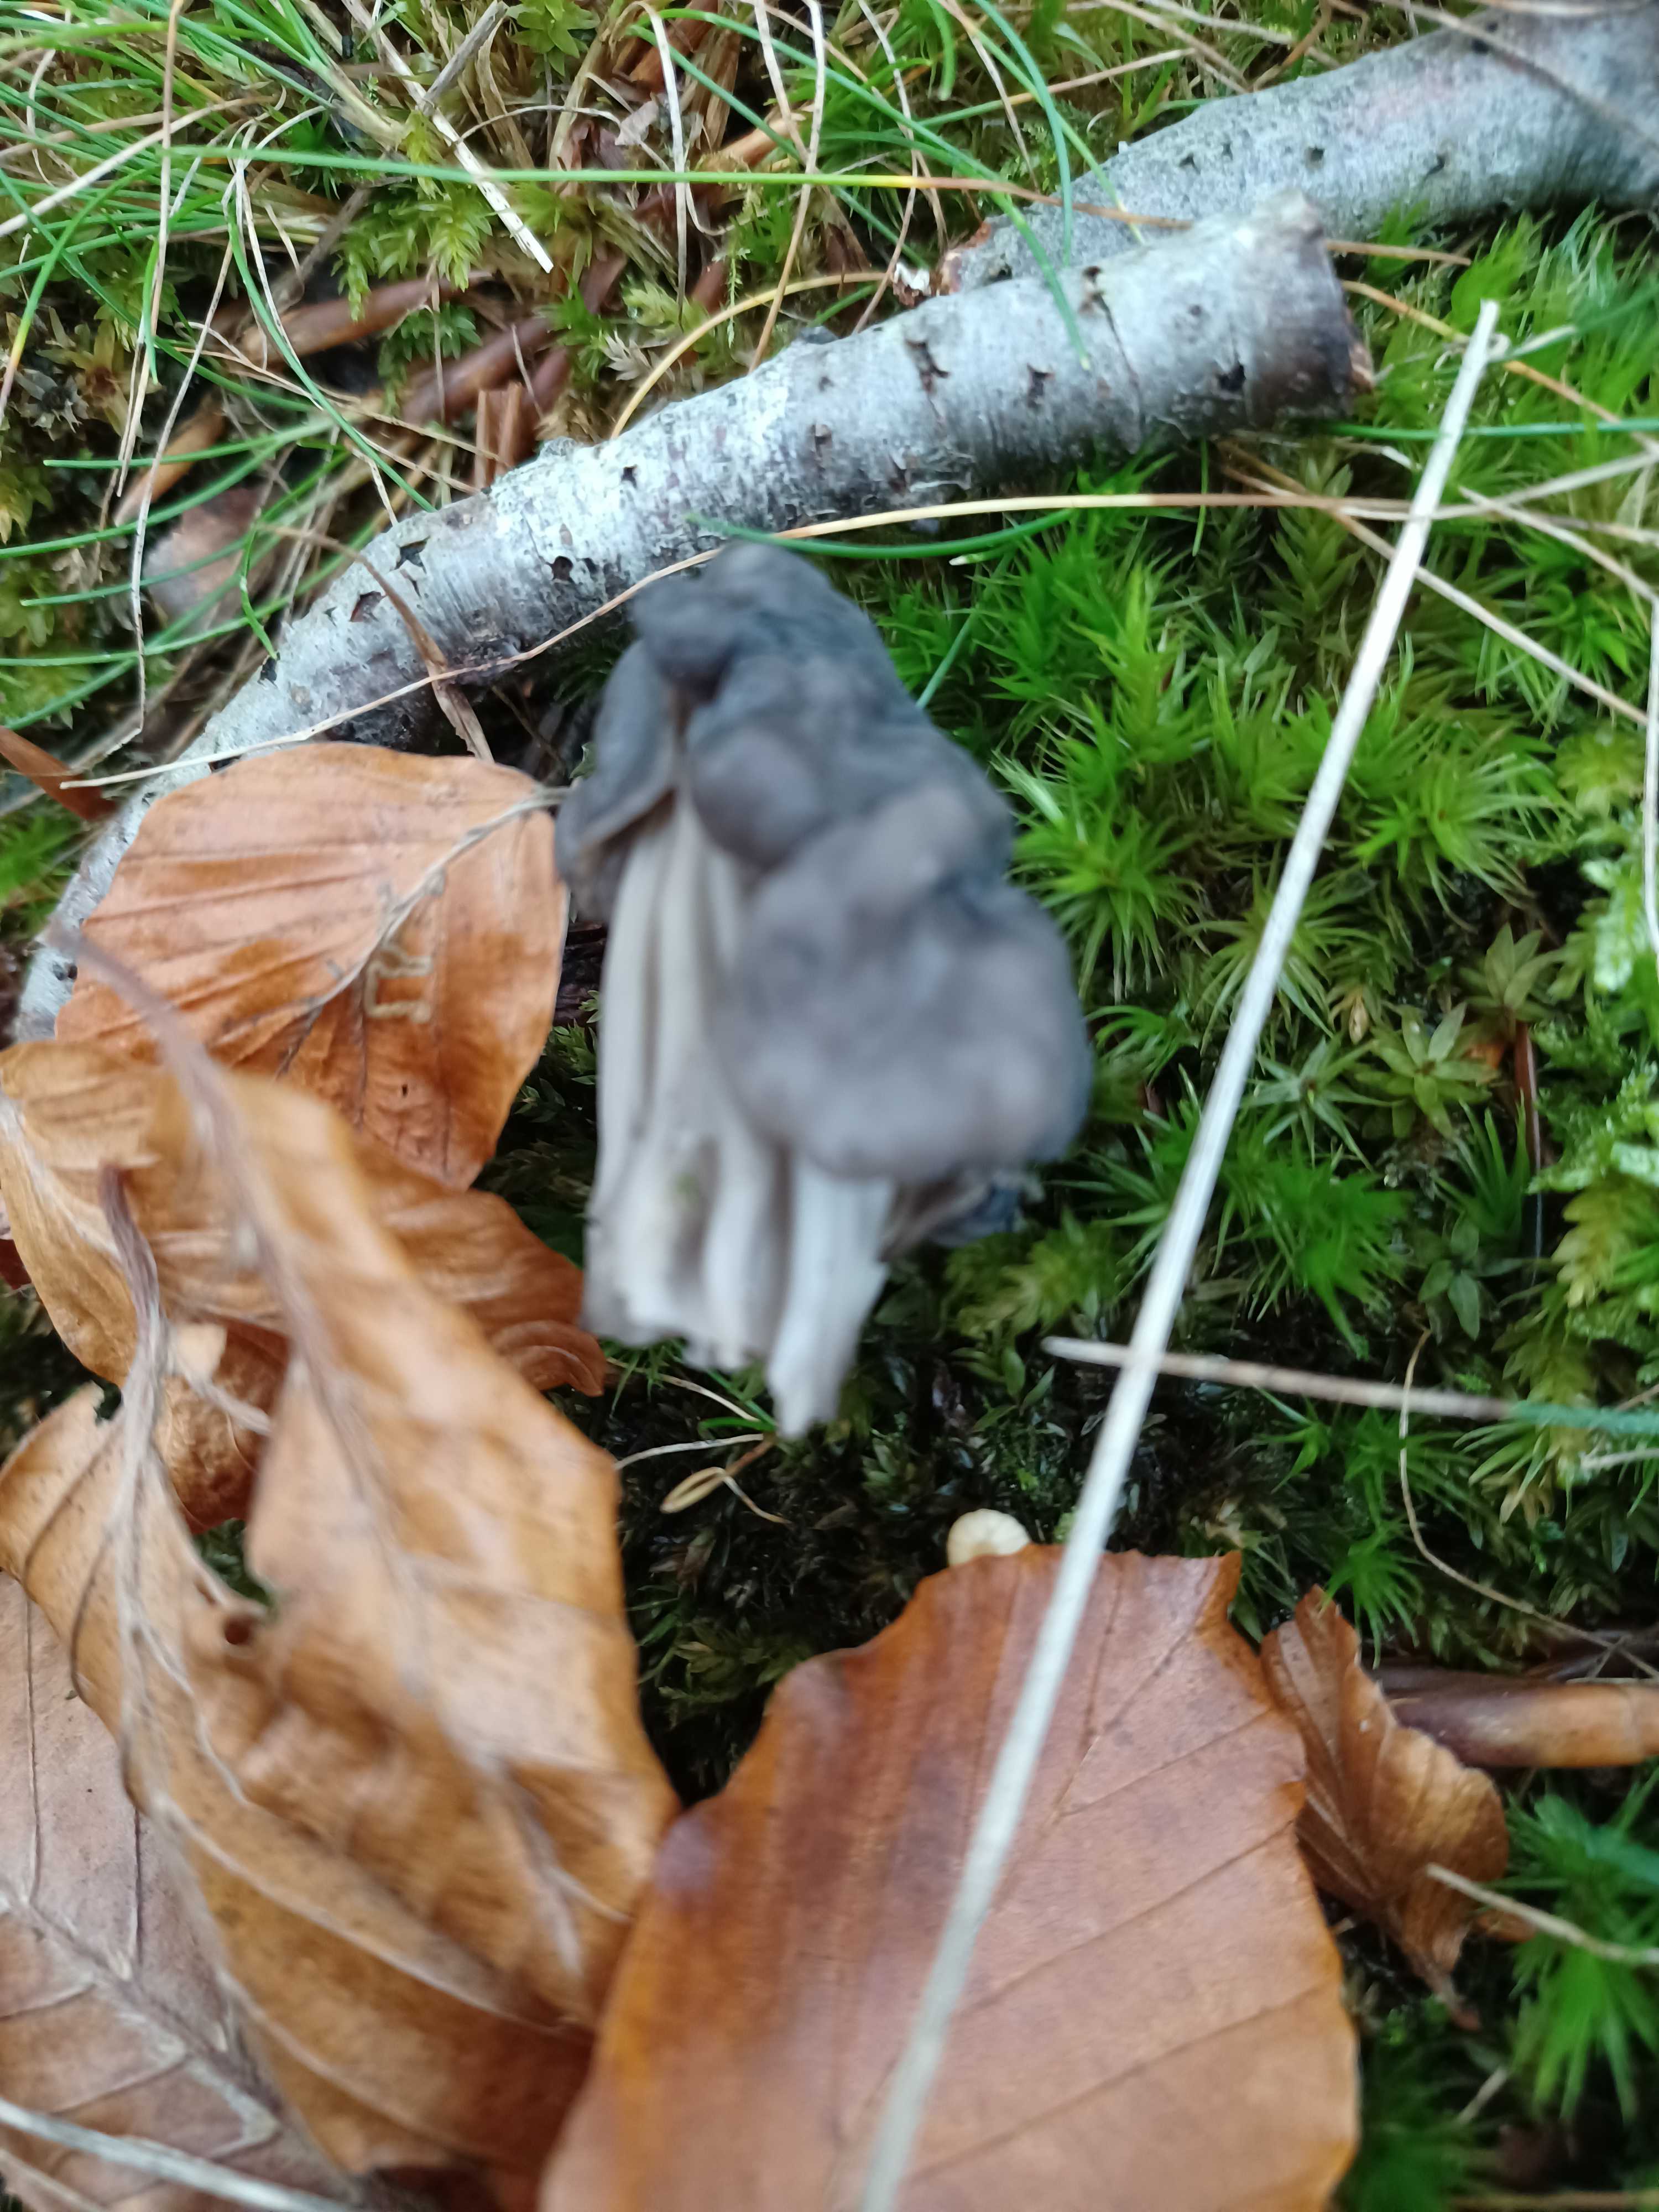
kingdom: Fungi
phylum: Ascomycota
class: Pezizomycetes
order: Pezizales
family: Helvellaceae
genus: Helvella
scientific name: Helvella lacunosa
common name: grubet foldhat
